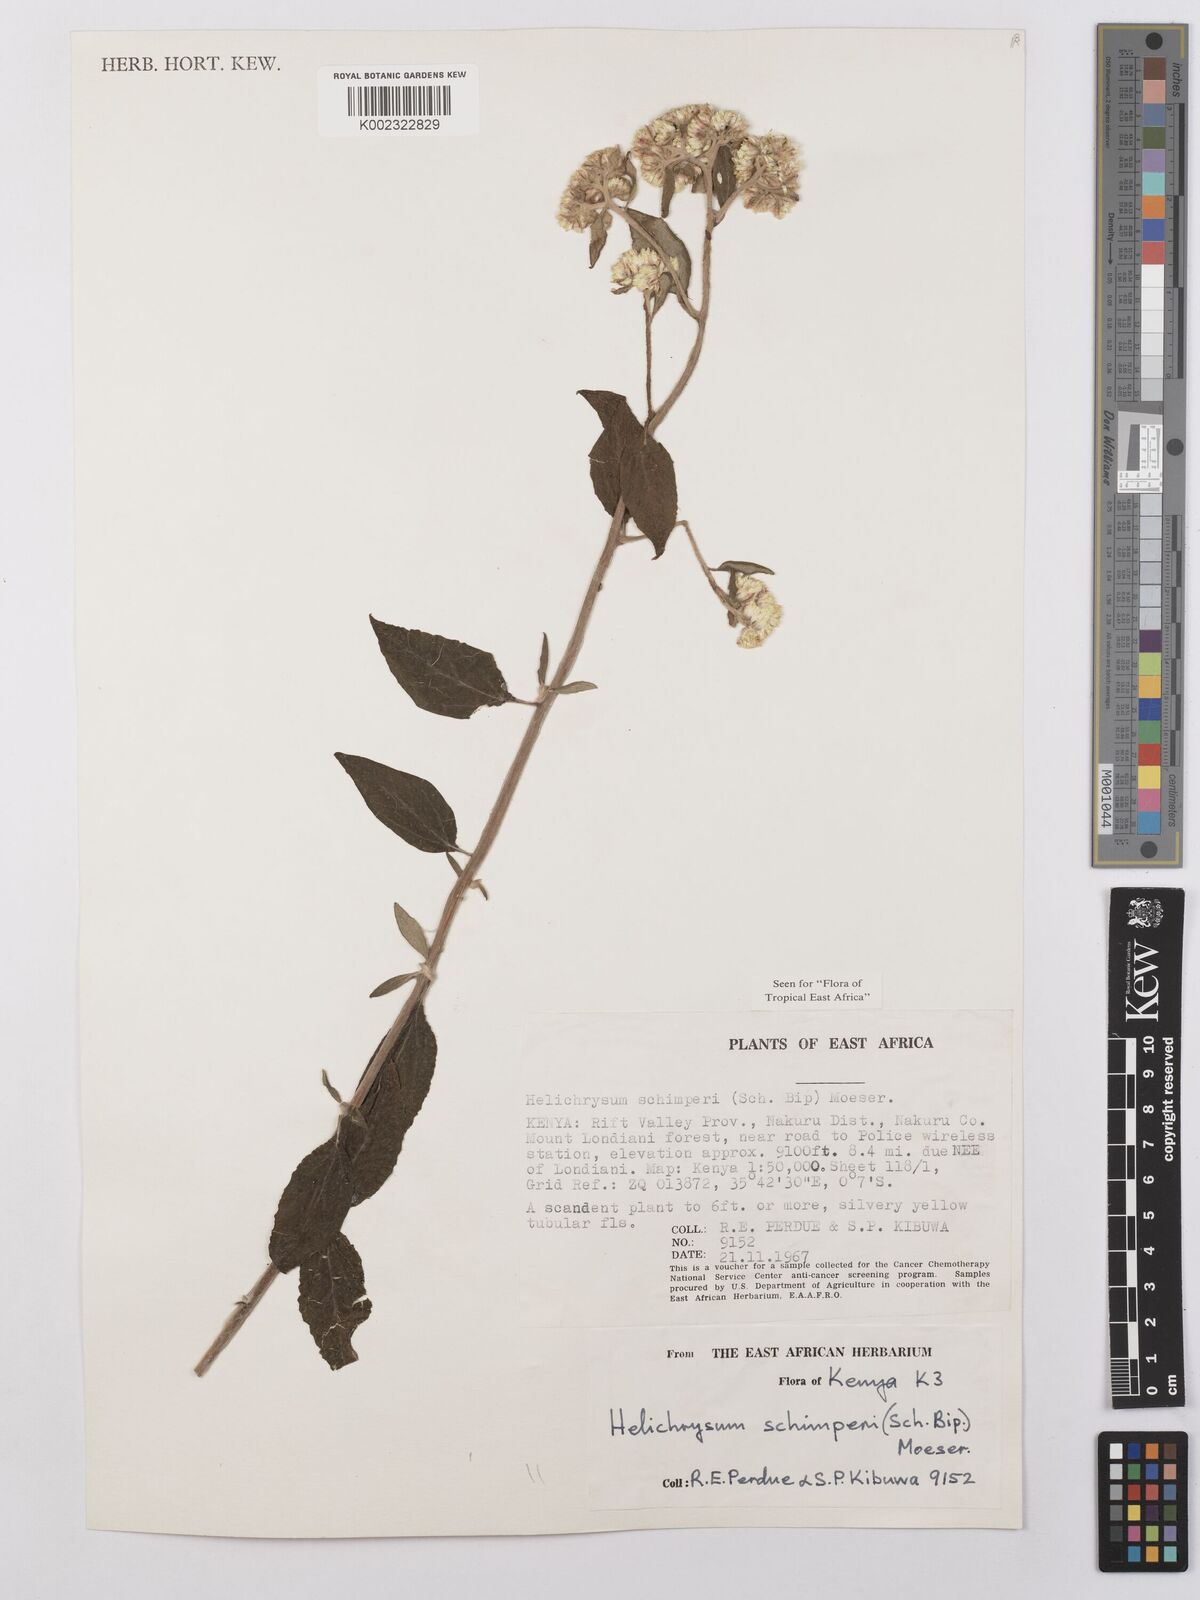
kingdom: Plantae
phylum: Tracheophyta
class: Magnoliopsida
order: Asterales
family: Asteraceae
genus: Helichrysum
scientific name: Helichrysum schimperi
